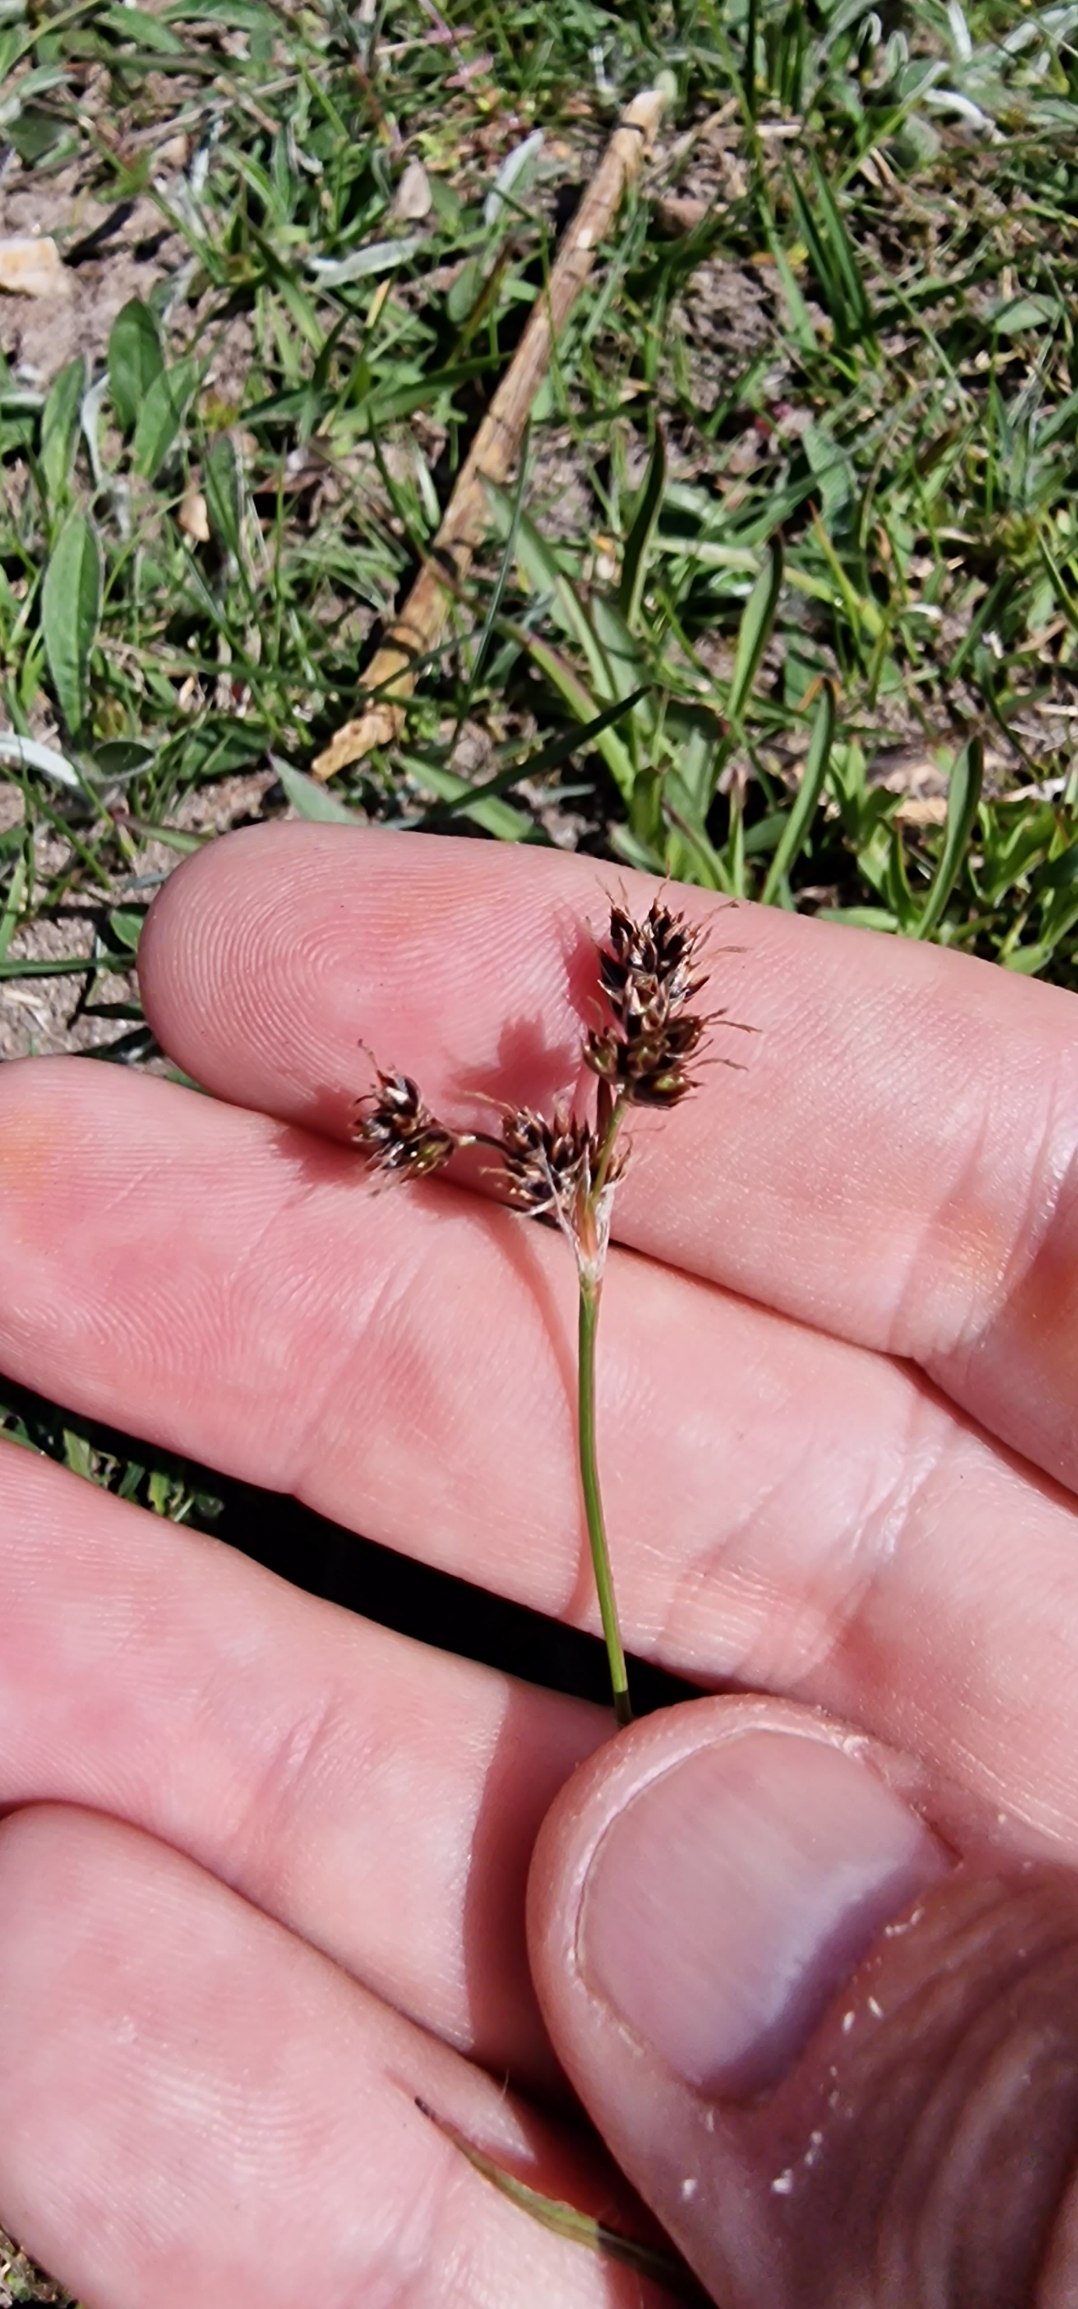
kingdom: Plantae
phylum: Tracheophyta
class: Liliopsida
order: Poales
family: Juncaceae
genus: Luzula
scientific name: Luzula campestris
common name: Mark-frytle
